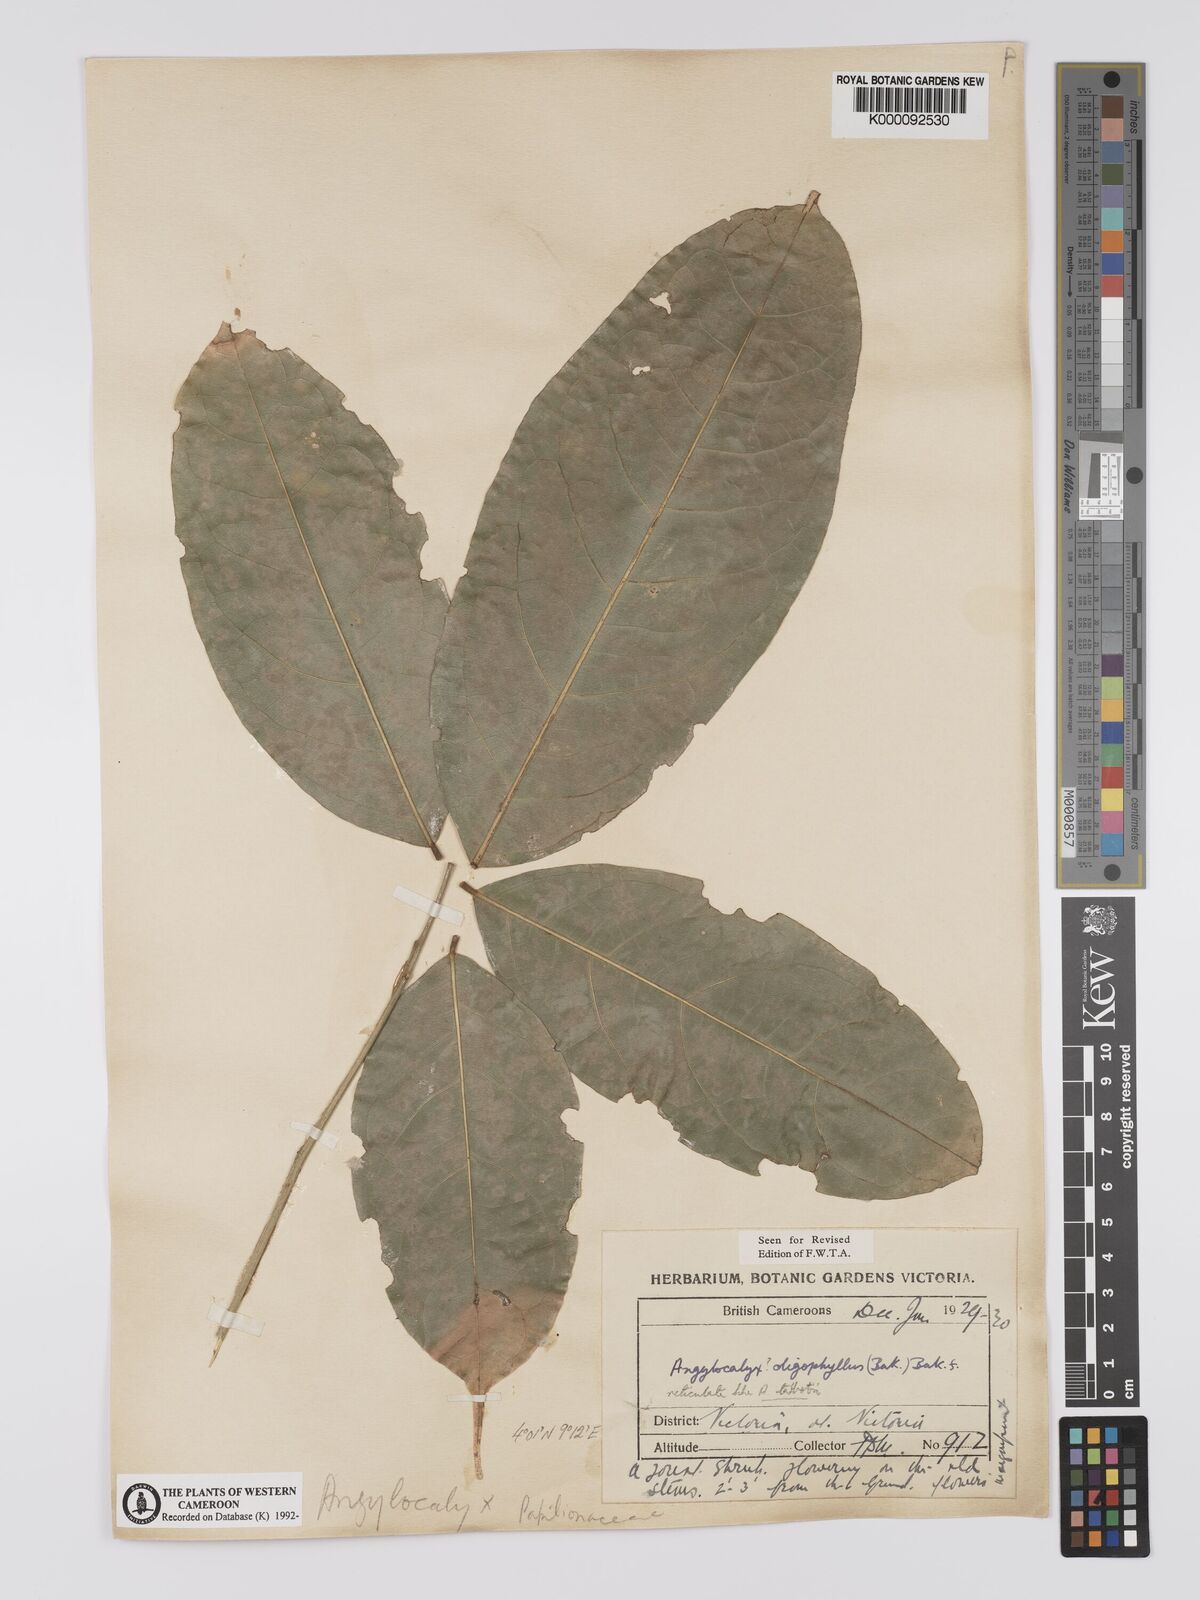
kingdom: Plantae
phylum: Tracheophyta
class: Magnoliopsida
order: Fabales
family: Fabaceae
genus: Angylocalyx
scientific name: Angylocalyx oligophyllus
